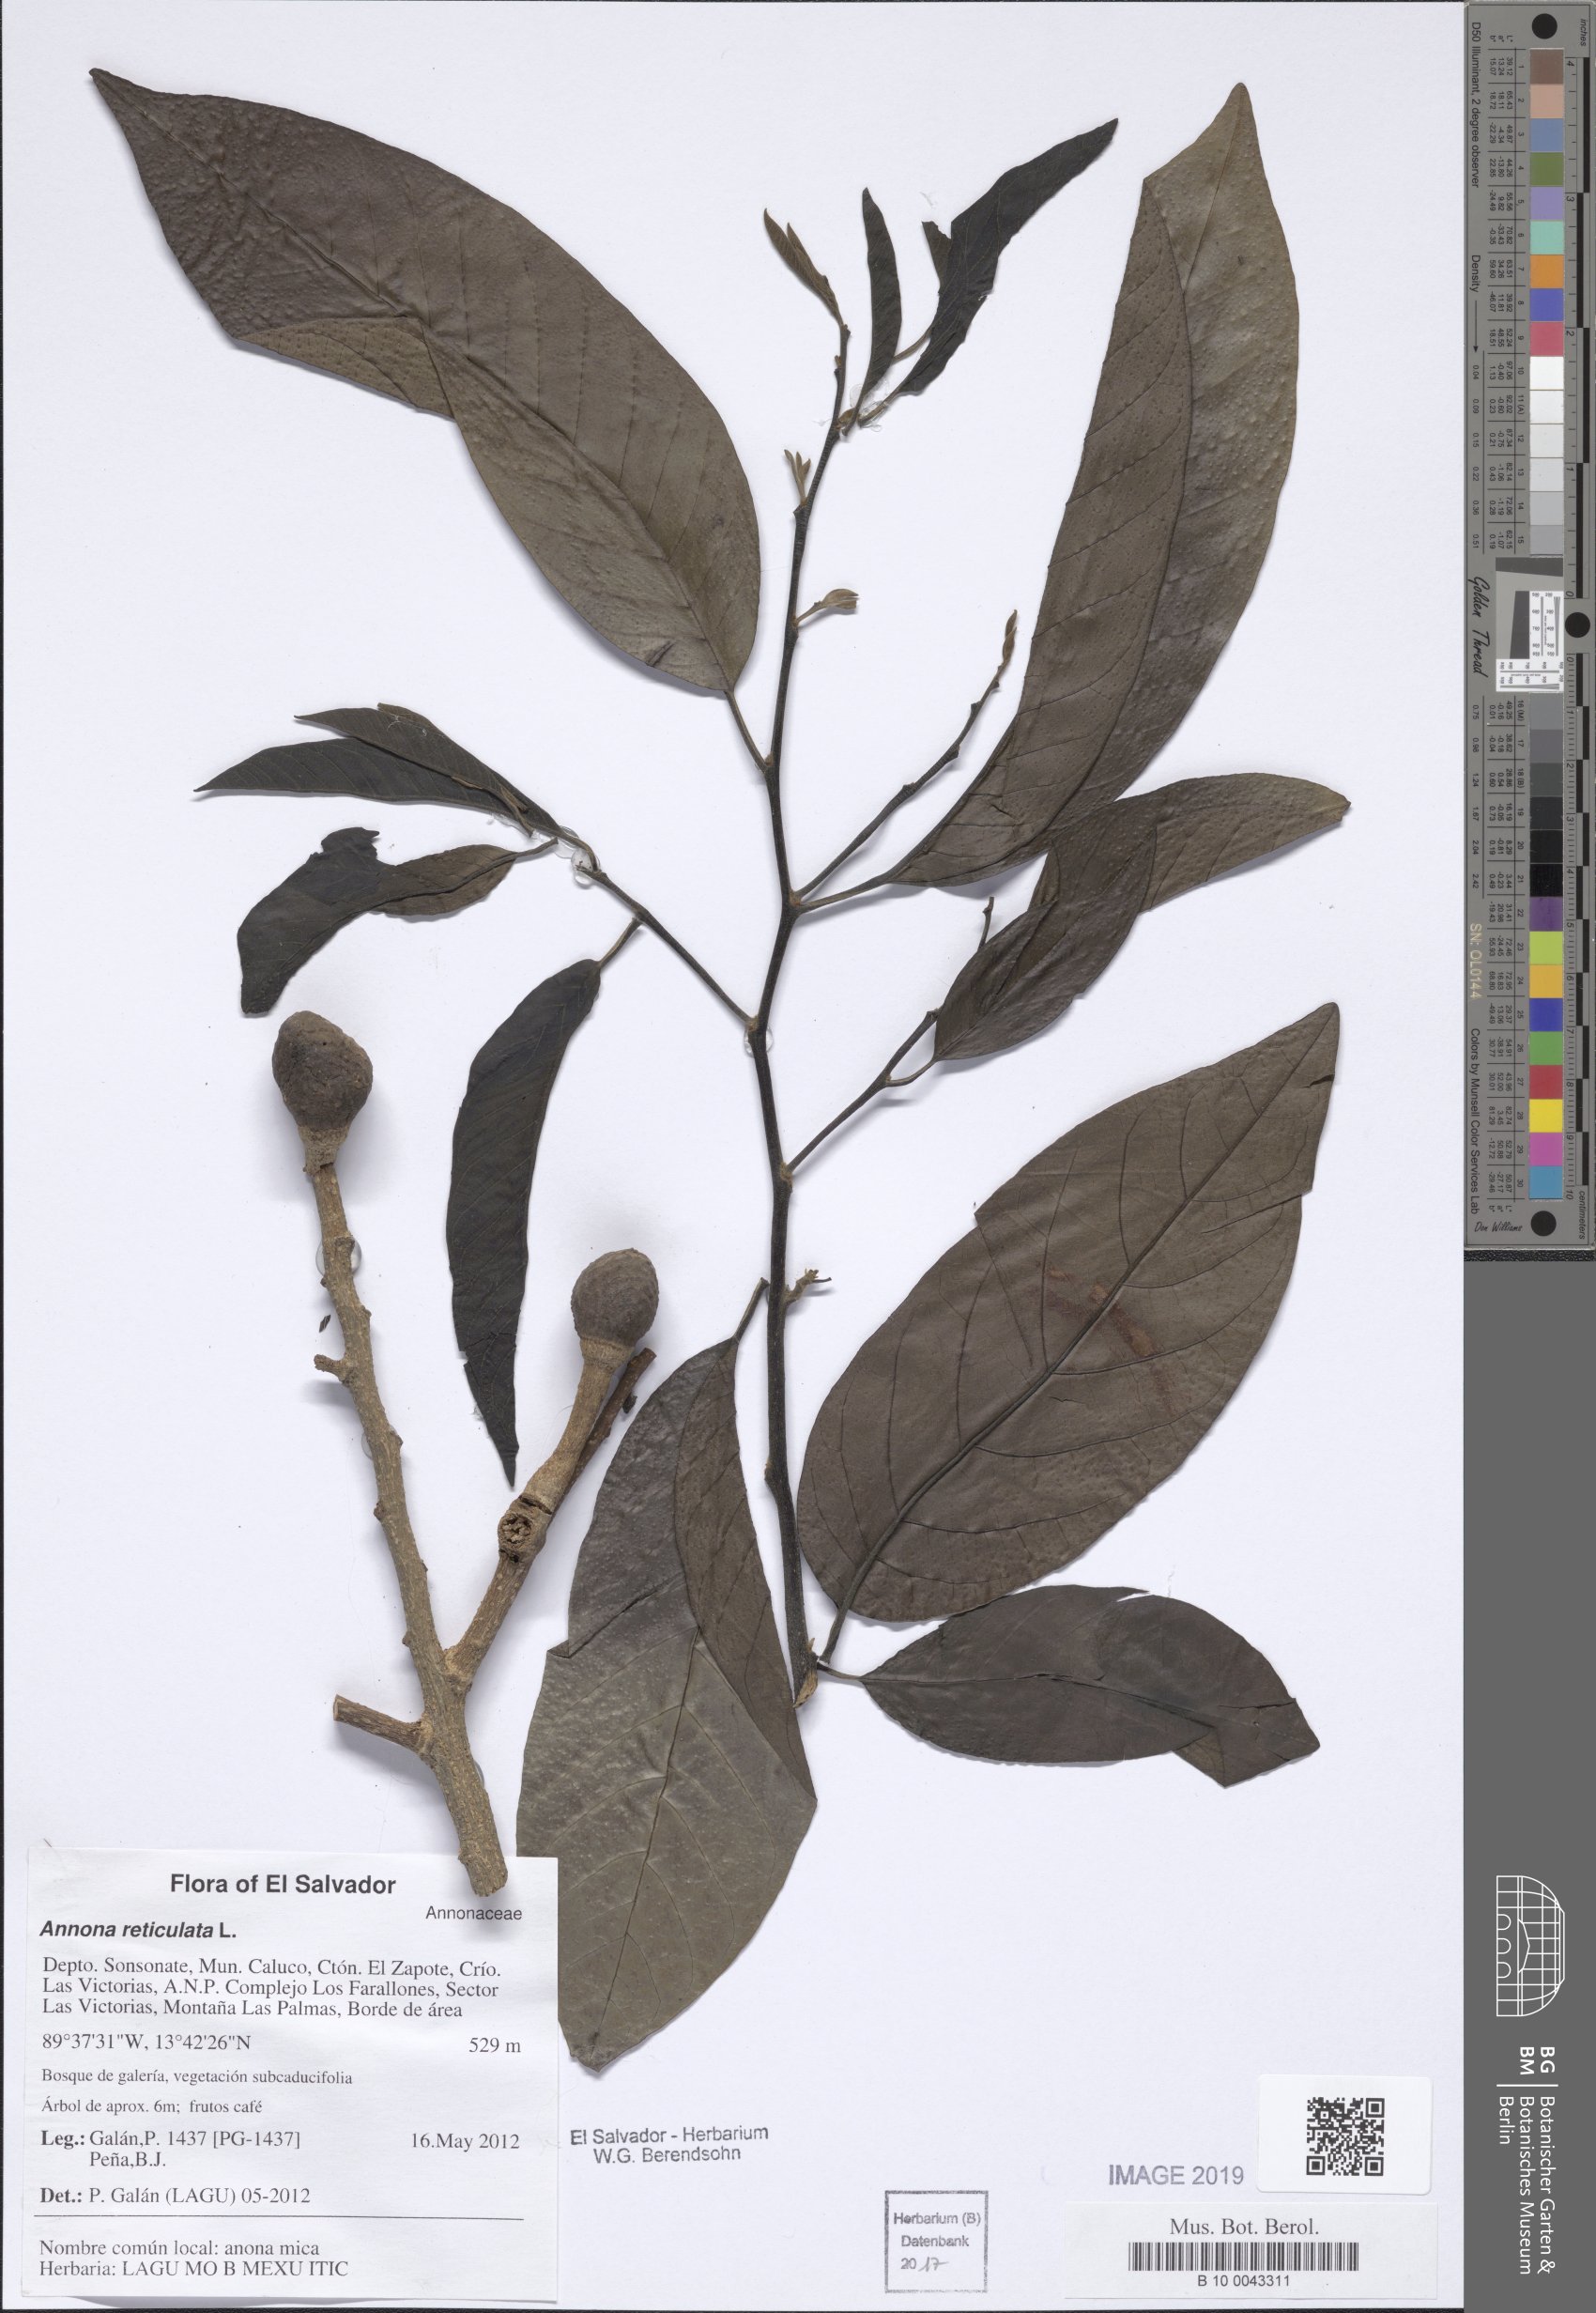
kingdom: Plantae
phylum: Tracheophyta
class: Magnoliopsida
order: Magnoliales
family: Annonaceae
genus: Annona
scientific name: Annona reticulata
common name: Custard apple
